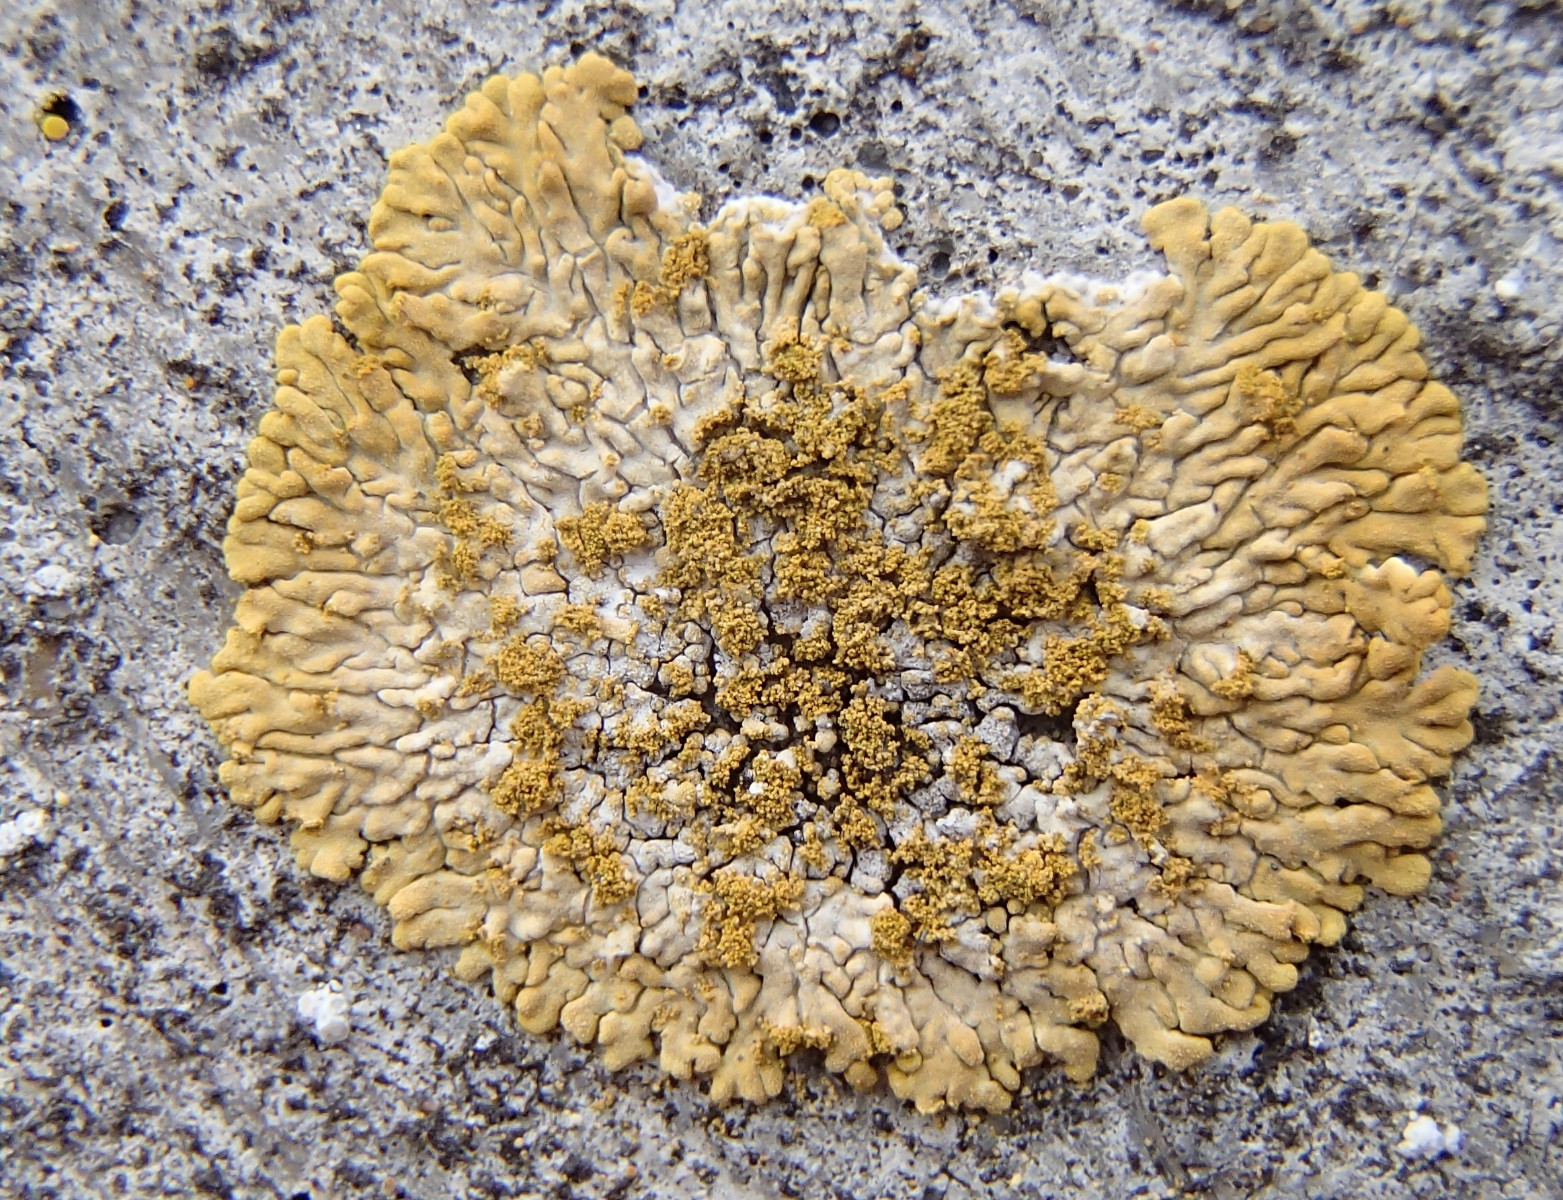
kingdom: Fungi
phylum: Ascomycota
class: Lecanoromycetes
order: Teloschistales
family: Teloschistaceae
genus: Calogaya
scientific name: Calogaya decipiens
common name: knudret orangelav
